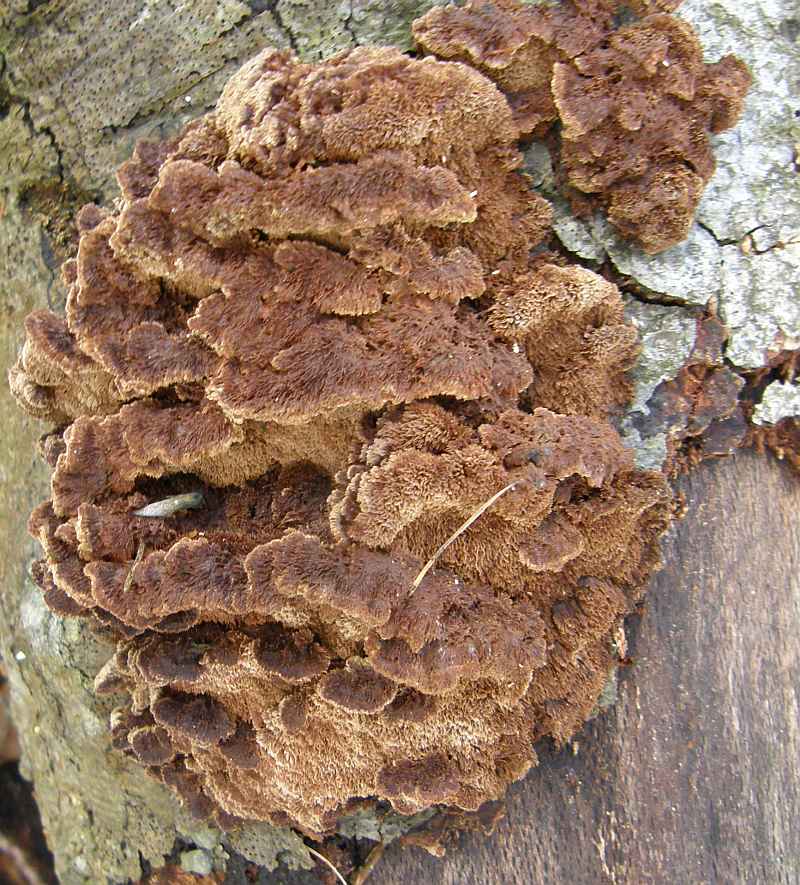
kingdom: Fungi
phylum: Basidiomycota
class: Agaricomycetes
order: Hymenochaetales
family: Hymenochaetaceae
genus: Mensularia
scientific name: Mensularia nodulosa
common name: bøge-spejlporesvamp
